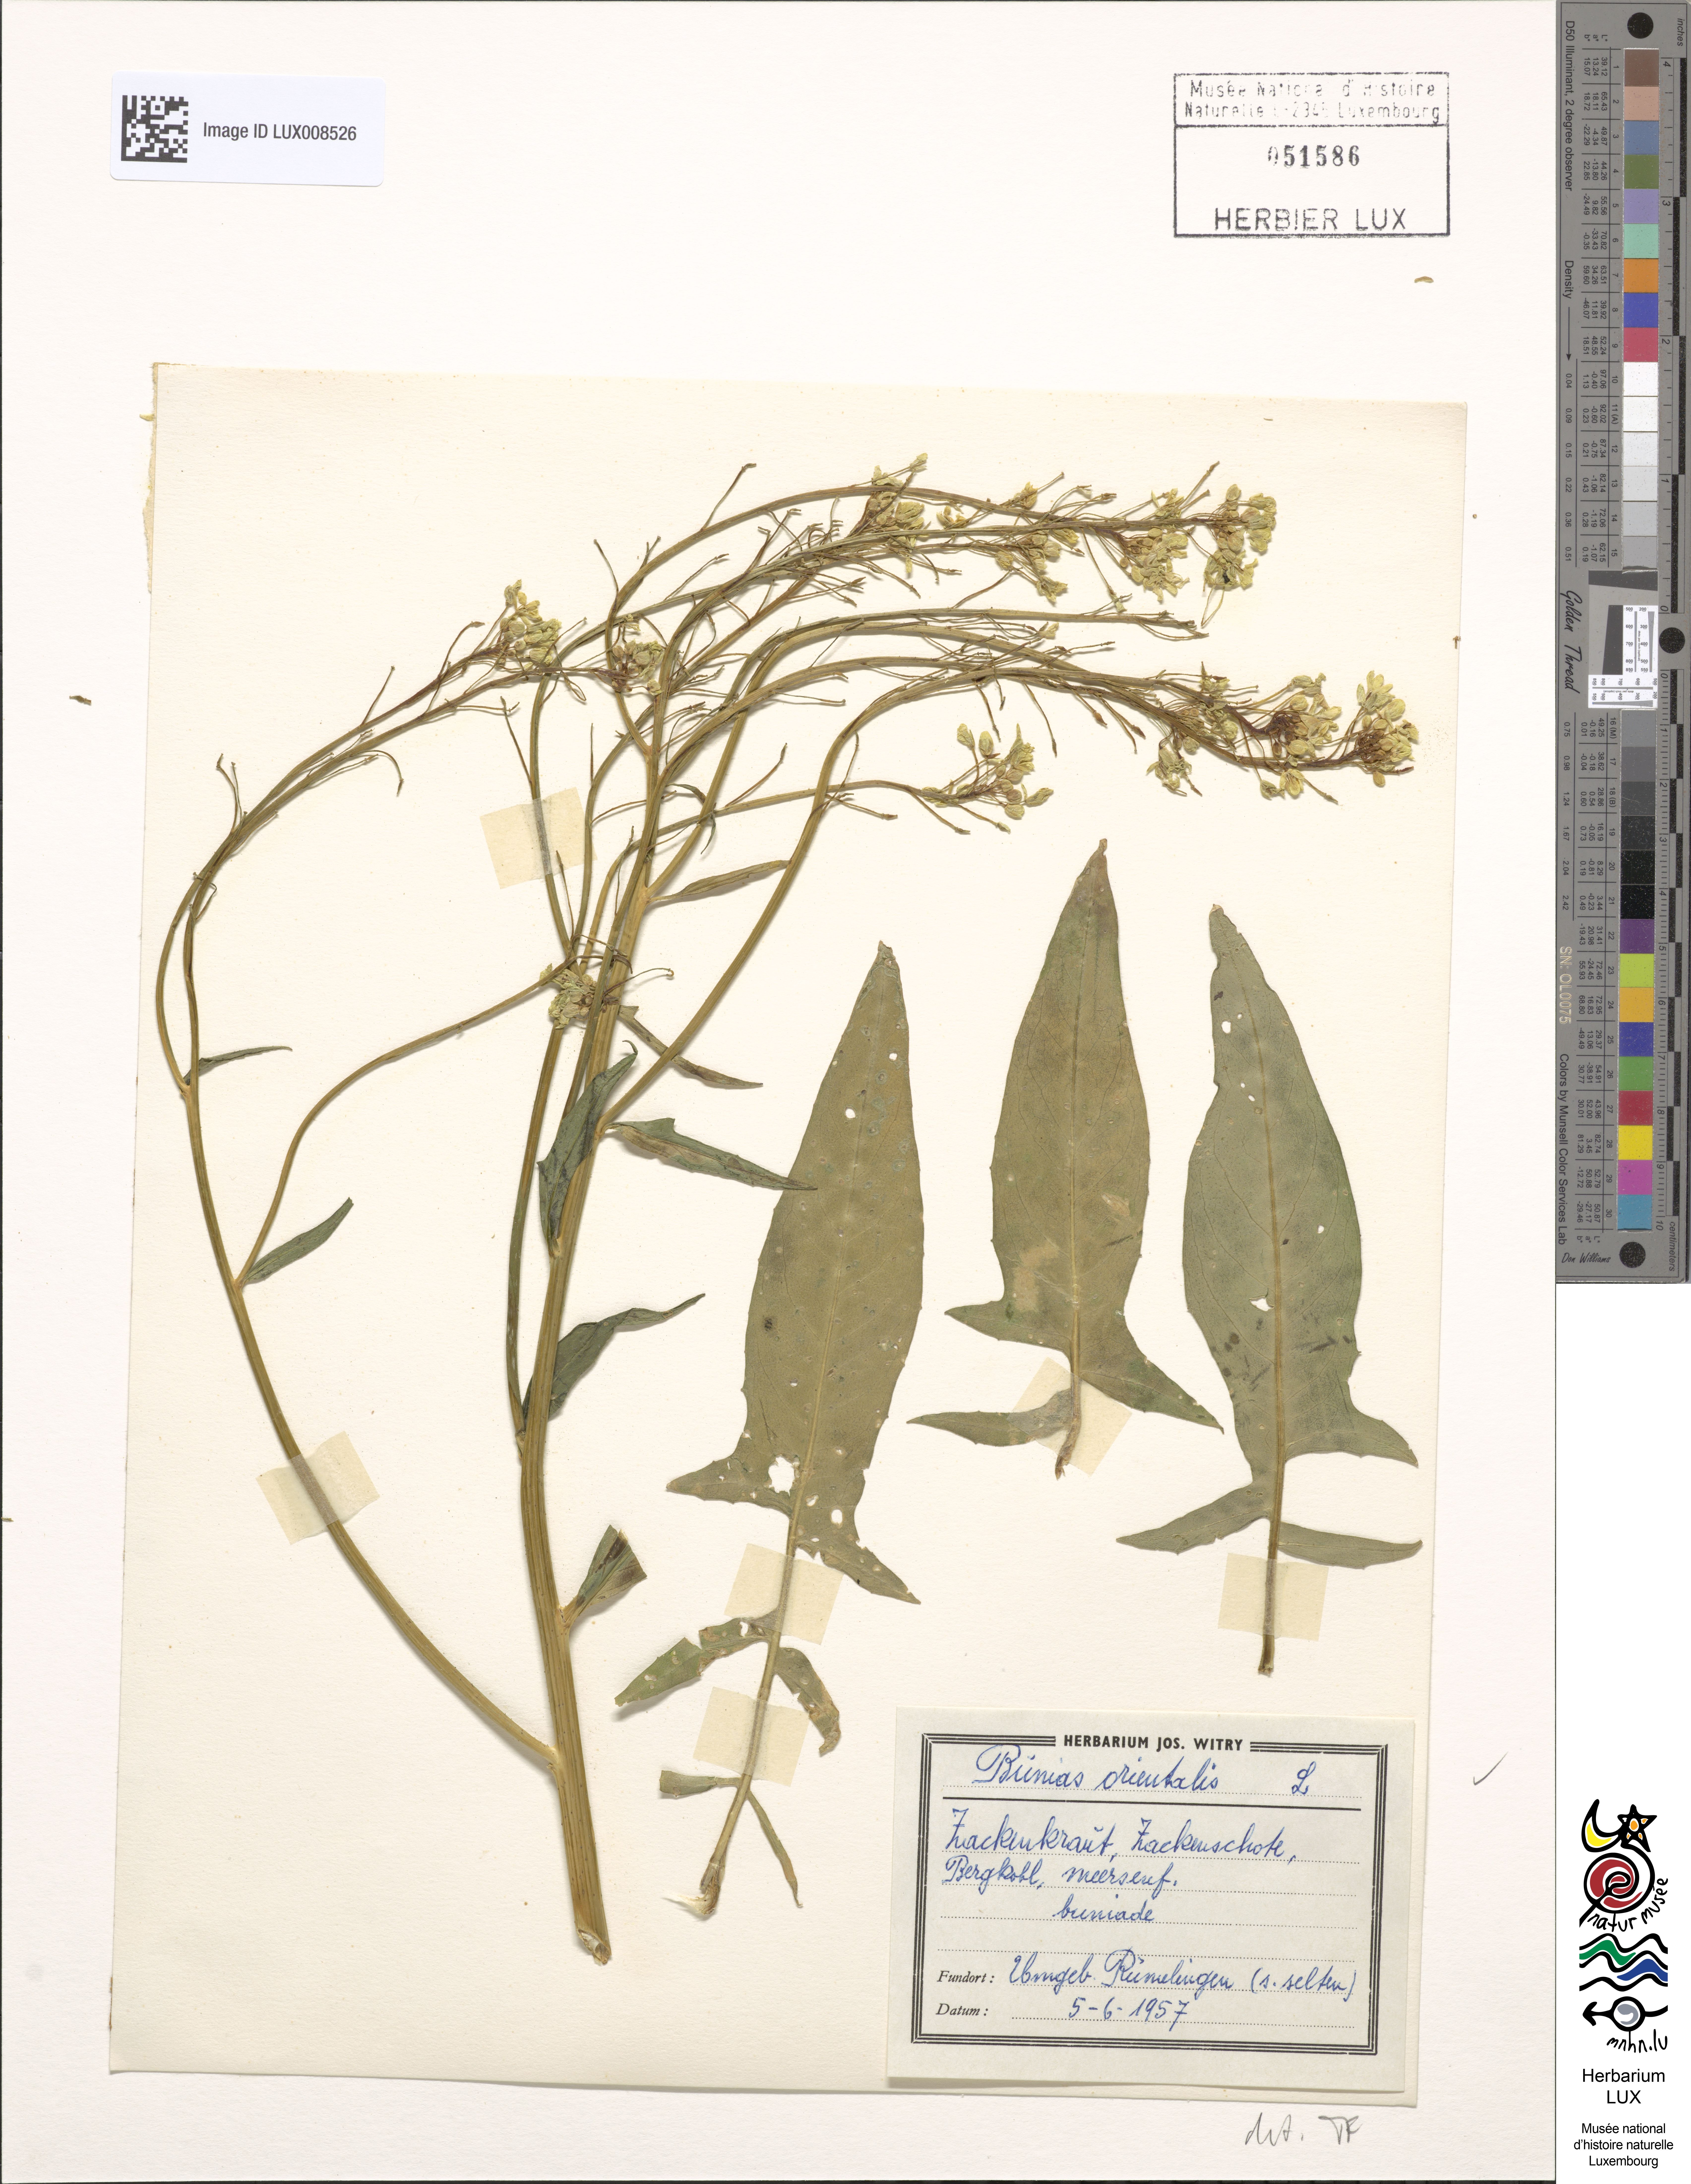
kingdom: Plantae
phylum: Tracheophyta
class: Magnoliopsida
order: Brassicales
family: Brassicaceae
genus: Bunias
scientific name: Bunias orientalis
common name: Warty-cabbage
